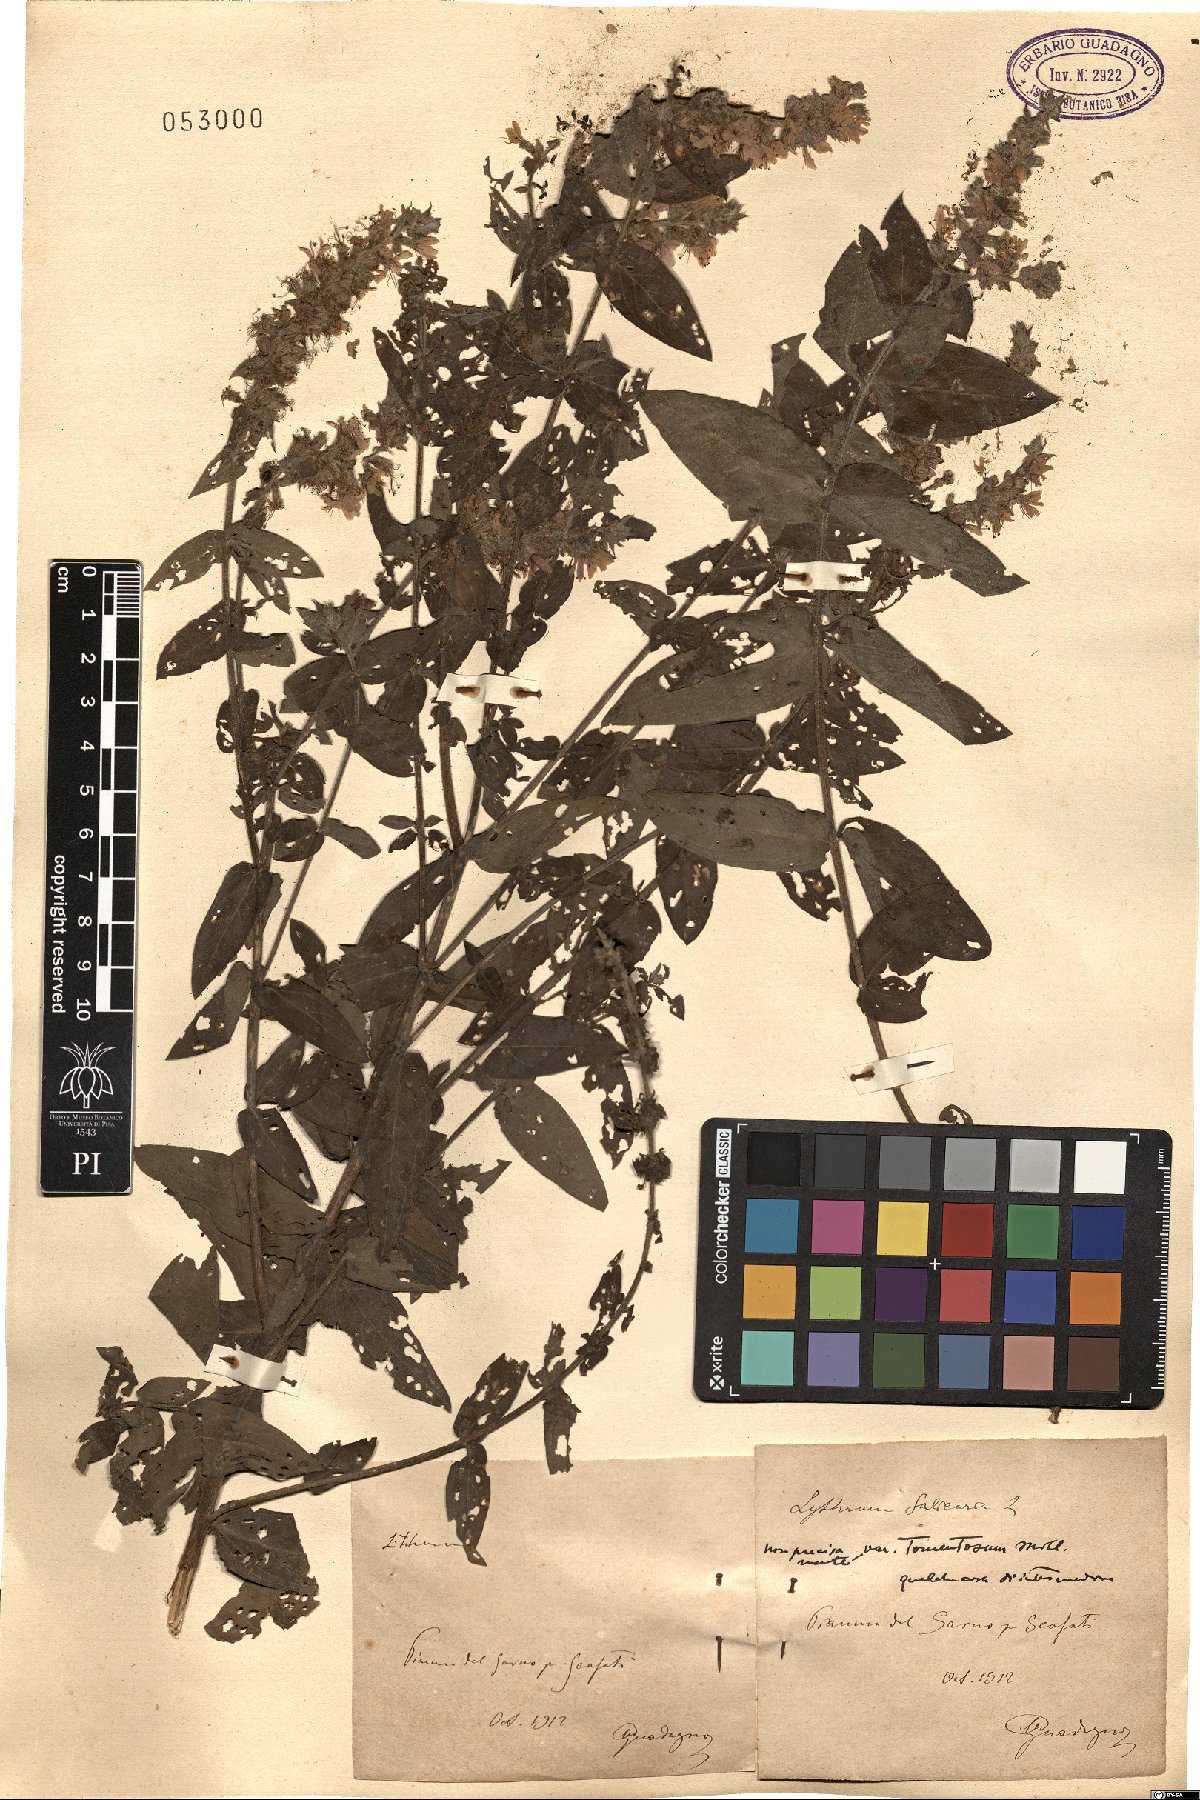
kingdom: Plantae
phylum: Tracheophyta
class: Magnoliopsida
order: Myrtales
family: Lythraceae
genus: Lythrum
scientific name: Lythrum salicaria
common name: Purple loosestrife
